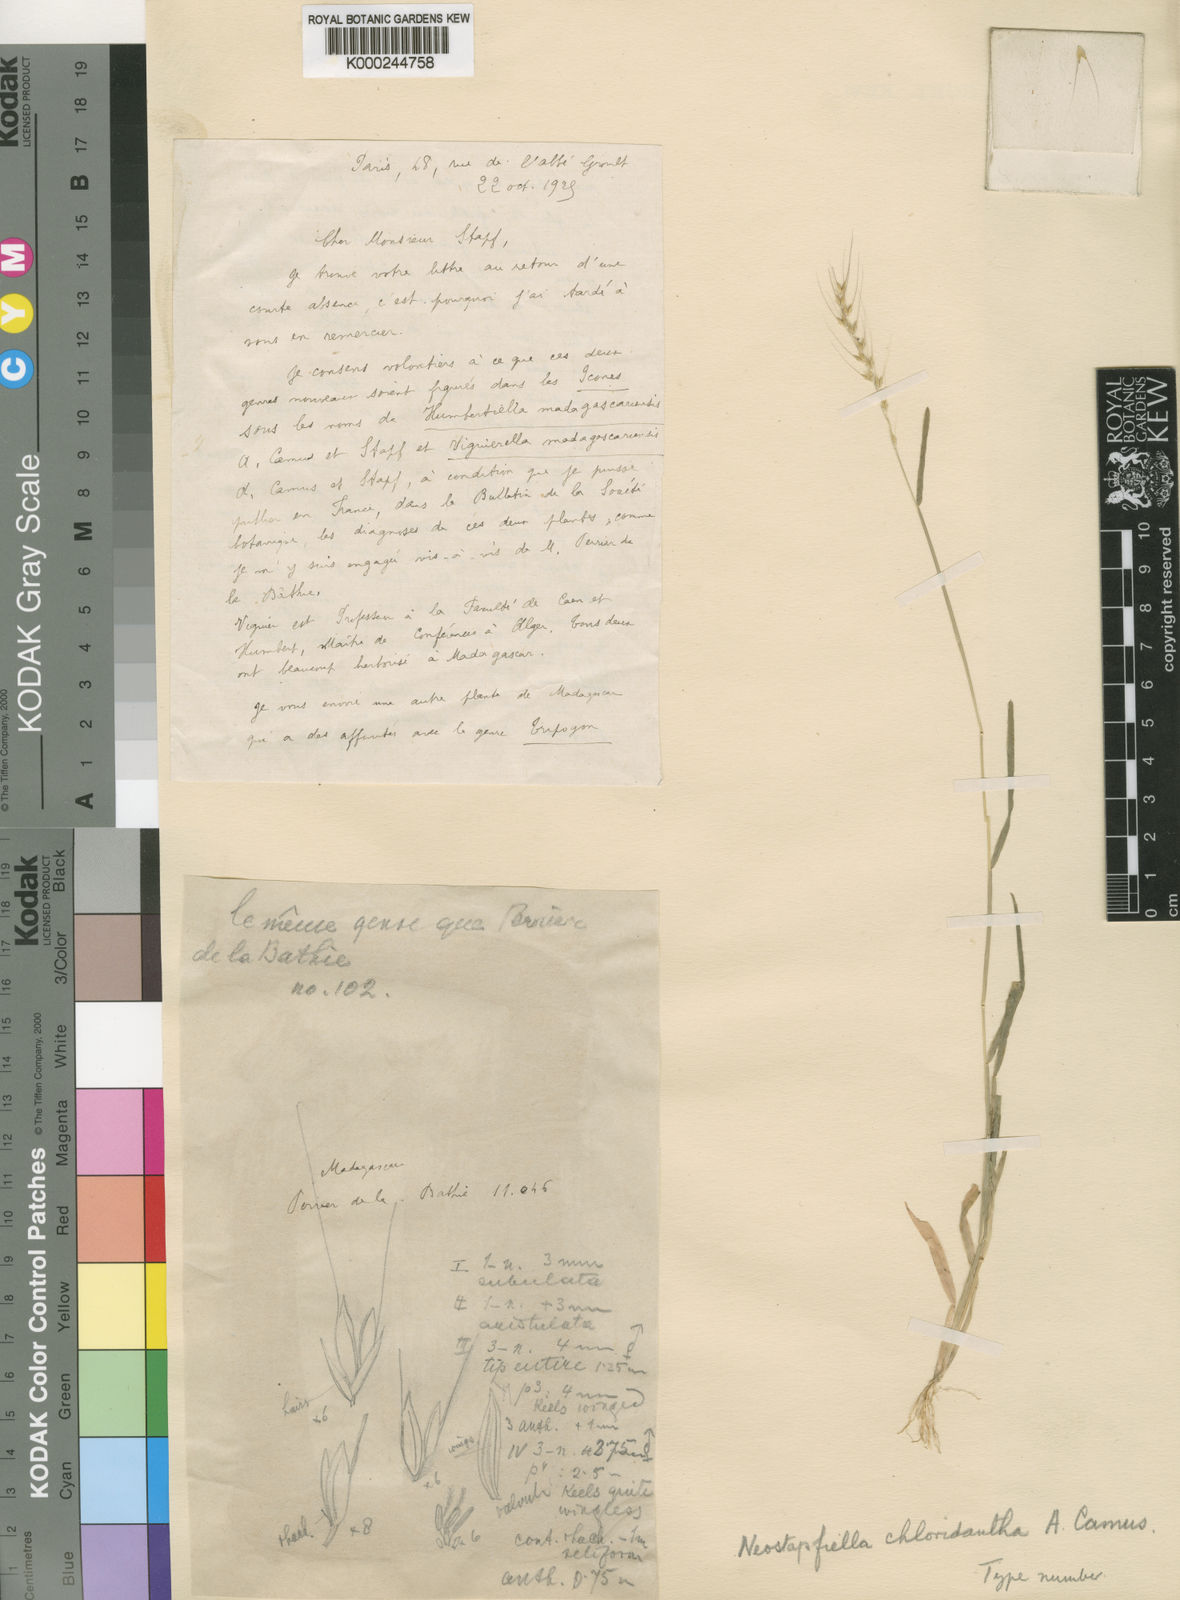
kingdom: Plantae
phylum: Tracheophyta
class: Liliopsida
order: Poales
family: Poaceae
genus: Neostapfiella
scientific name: Neostapfiella chloridiantha
